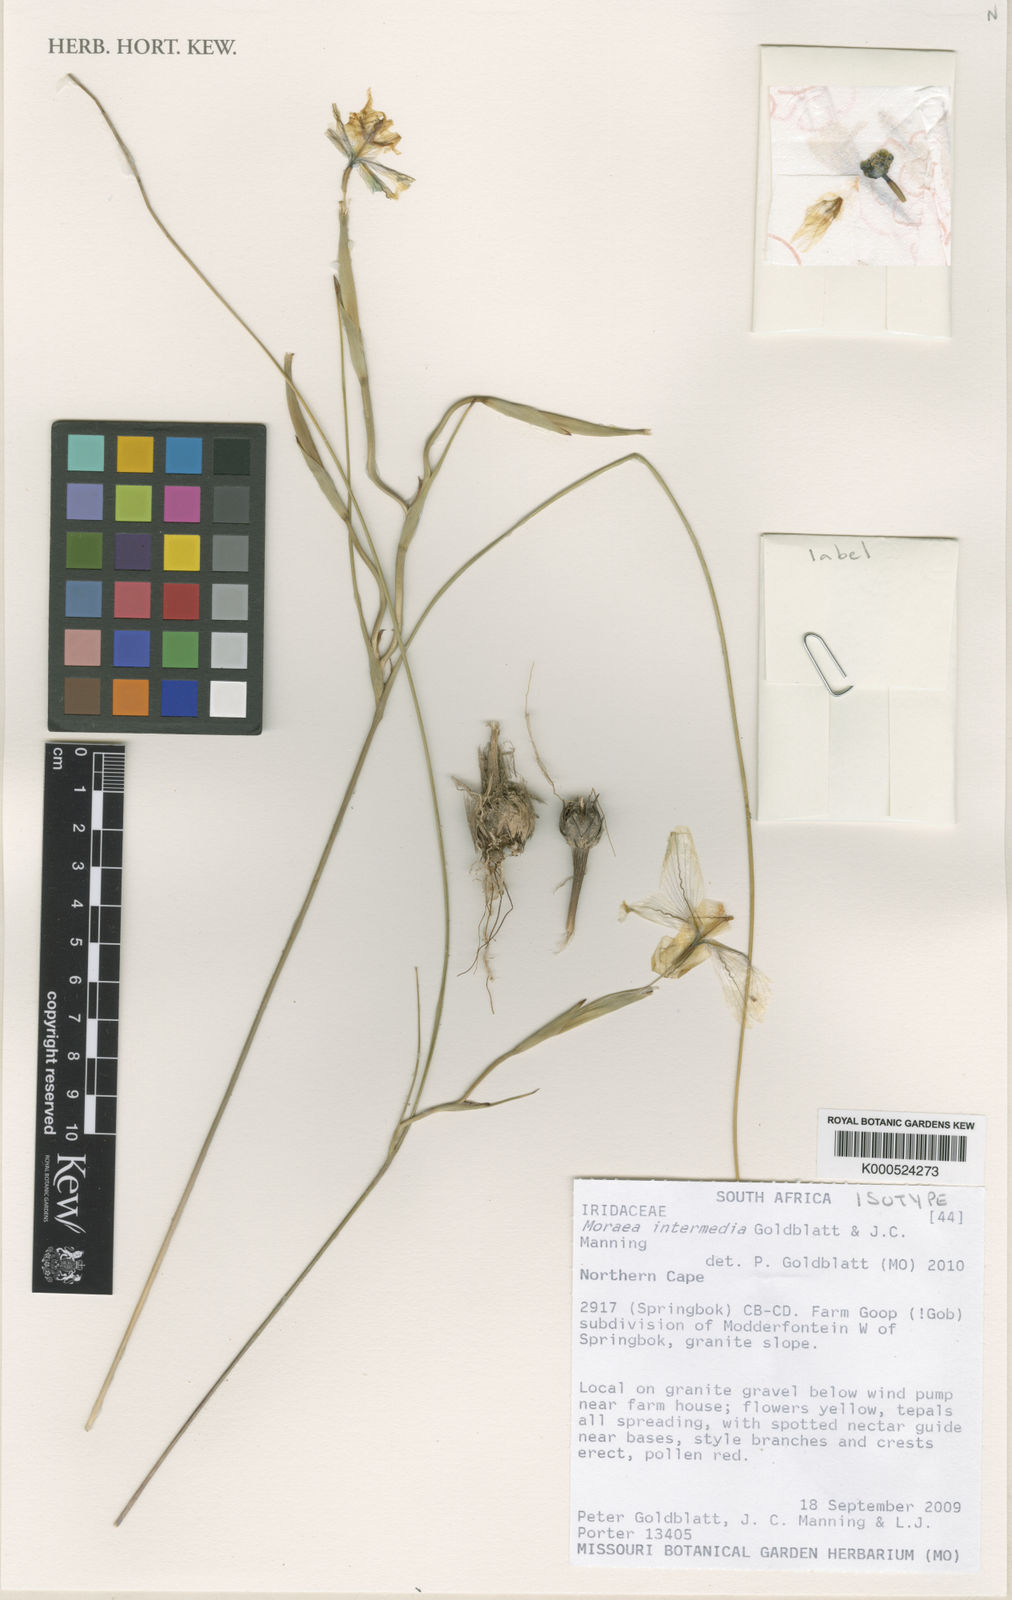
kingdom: Plantae
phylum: Tracheophyta
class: Liliopsida
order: Asparagales
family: Iridaceae
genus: Moraea
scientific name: Moraea
